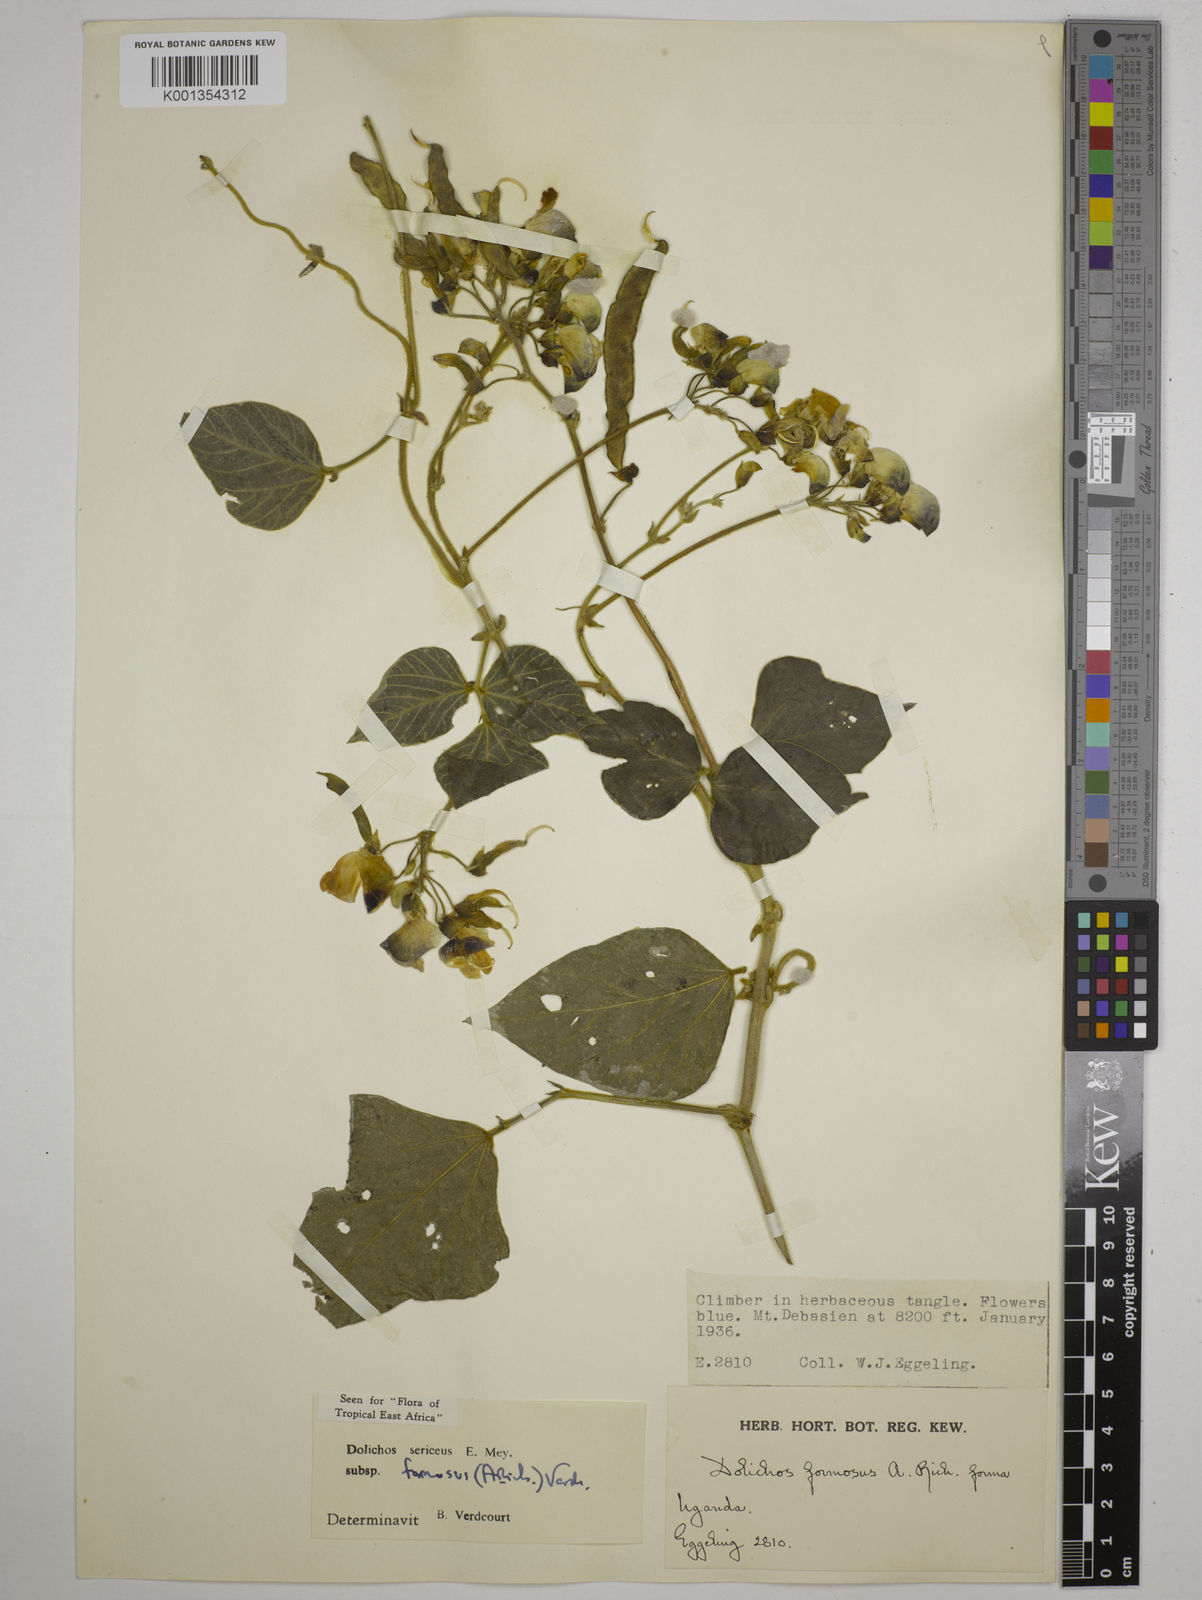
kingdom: Plantae
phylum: Tracheophyta
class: Magnoliopsida
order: Fabales
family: Fabaceae
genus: Dolichos
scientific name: Dolichos
